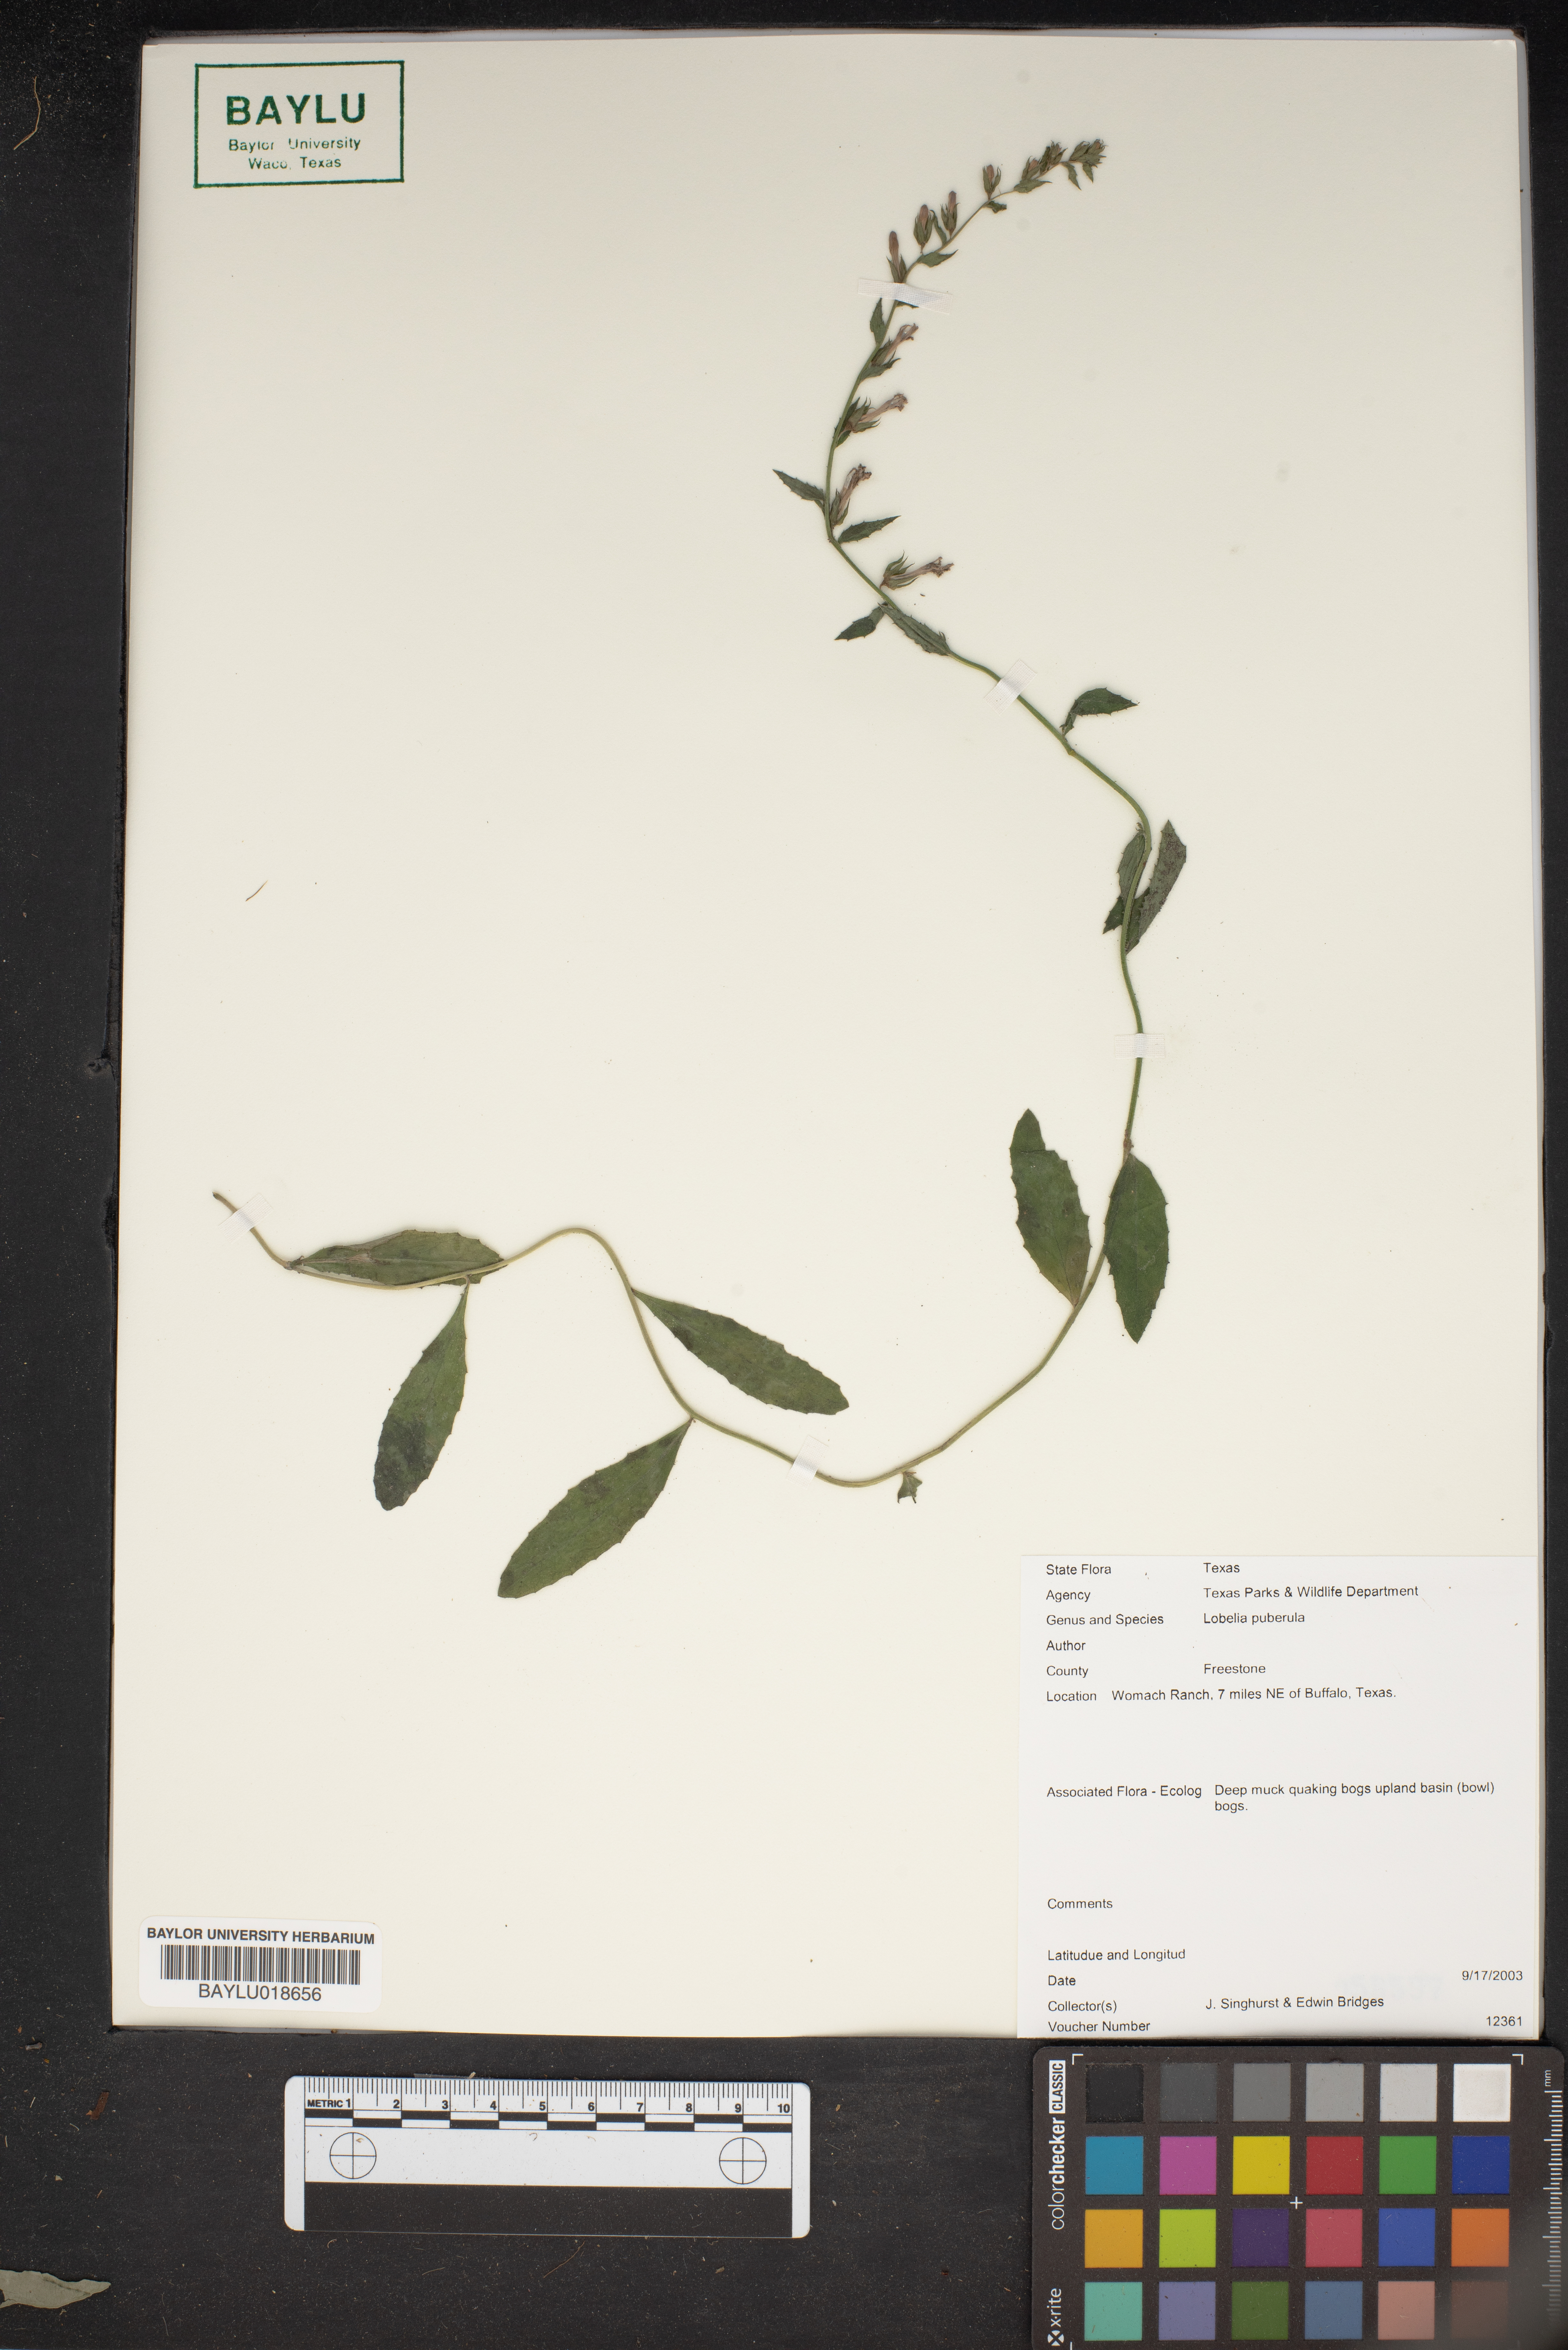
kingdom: Plantae
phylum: Tracheophyta
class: Magnoliopsida
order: Asterales
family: Campanulaceae
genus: Lobelia
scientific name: Lobelia puberula
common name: Purple dewdrop
